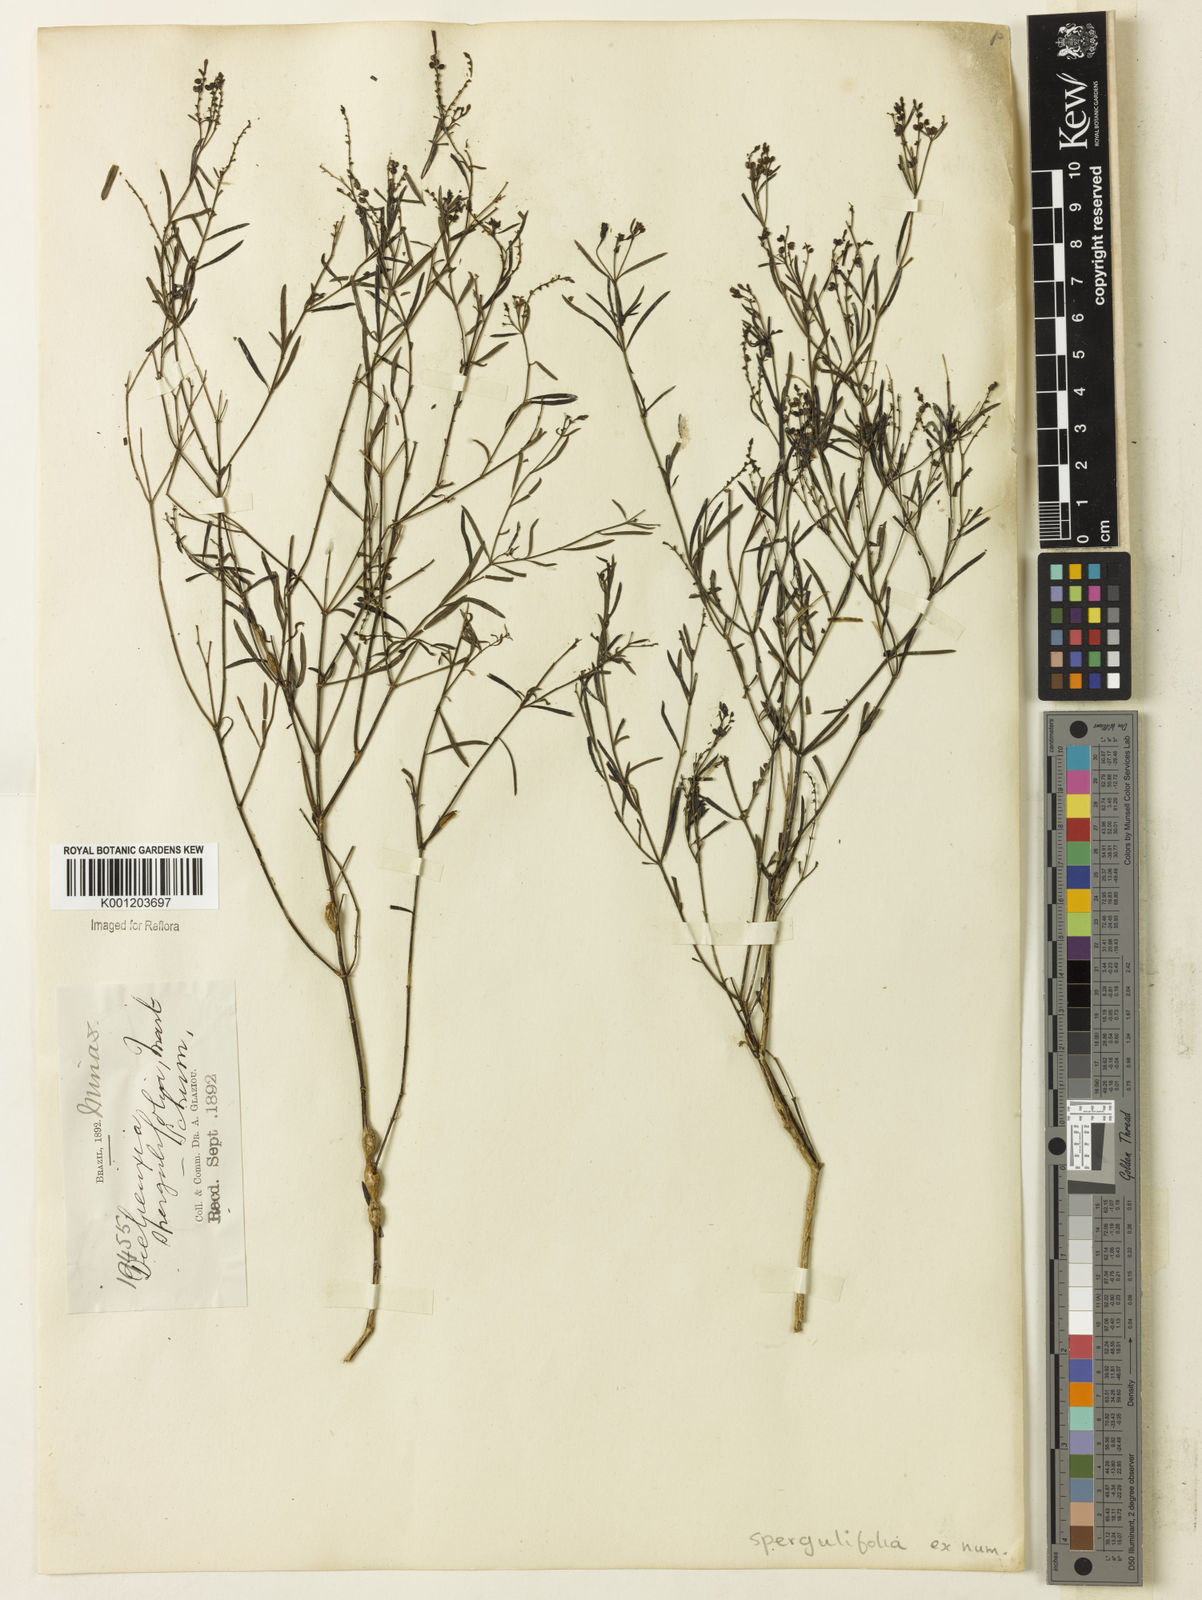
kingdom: Plantae
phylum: Tracheophyta
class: Magnoliopsida
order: Gentianales
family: Rubiaceae
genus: Declieuxia
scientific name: Declieuxia
